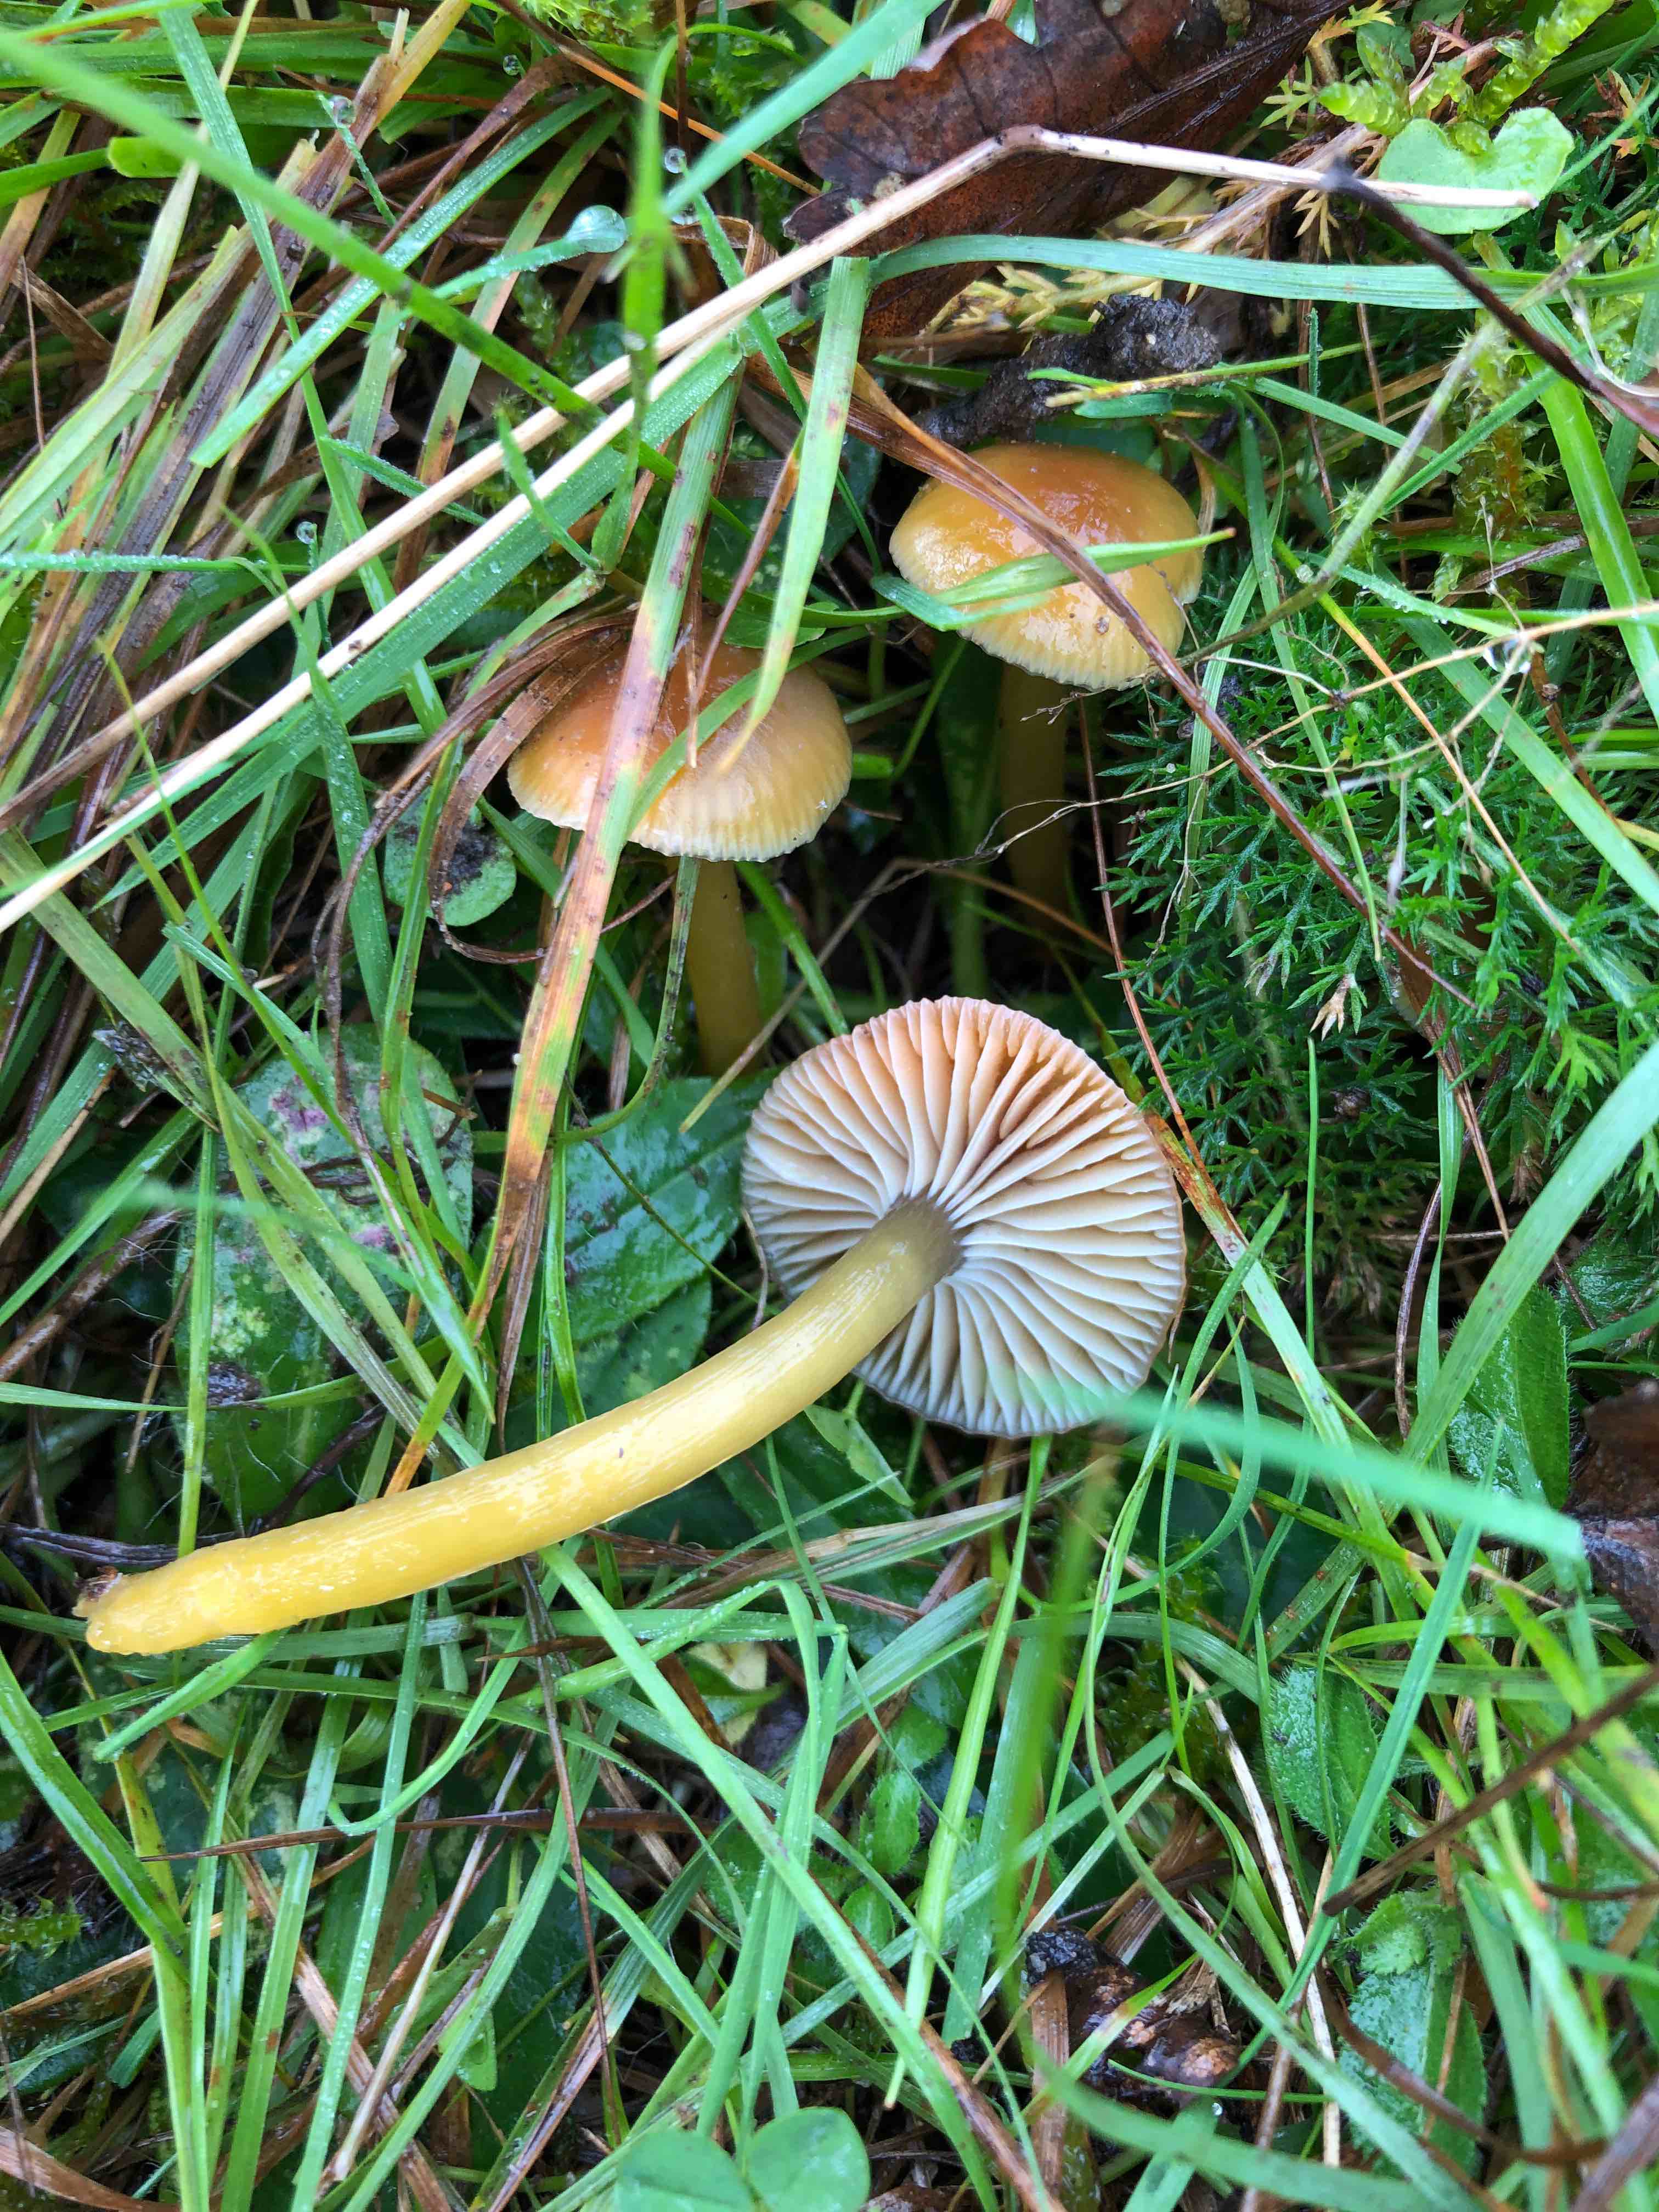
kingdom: Fungi
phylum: Basidiomycota
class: Agaricomycetes
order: Agaricales
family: Hygrophoraceae
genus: Gliophorus
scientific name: Gliophorus laetus
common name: brusk-vokshat
